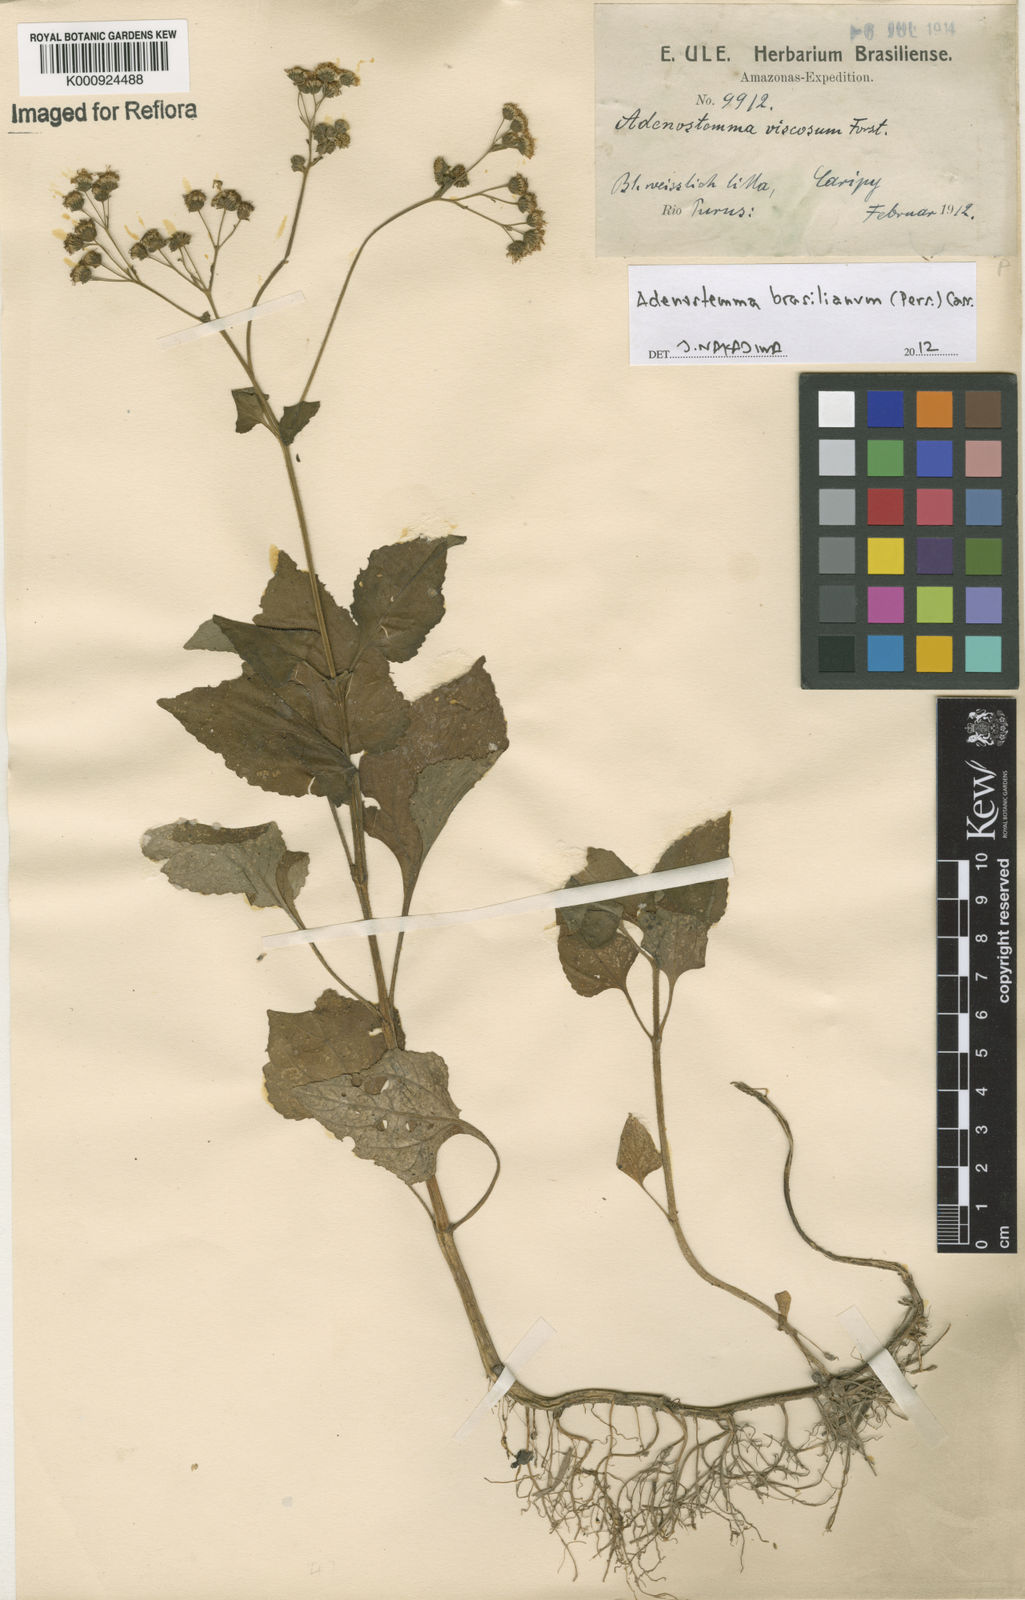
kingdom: Plantae
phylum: Tracheophyta
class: Magnoliopsida
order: Asterales
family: Asteraceae
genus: Adenostemma
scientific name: Adenostemma brasilianum
